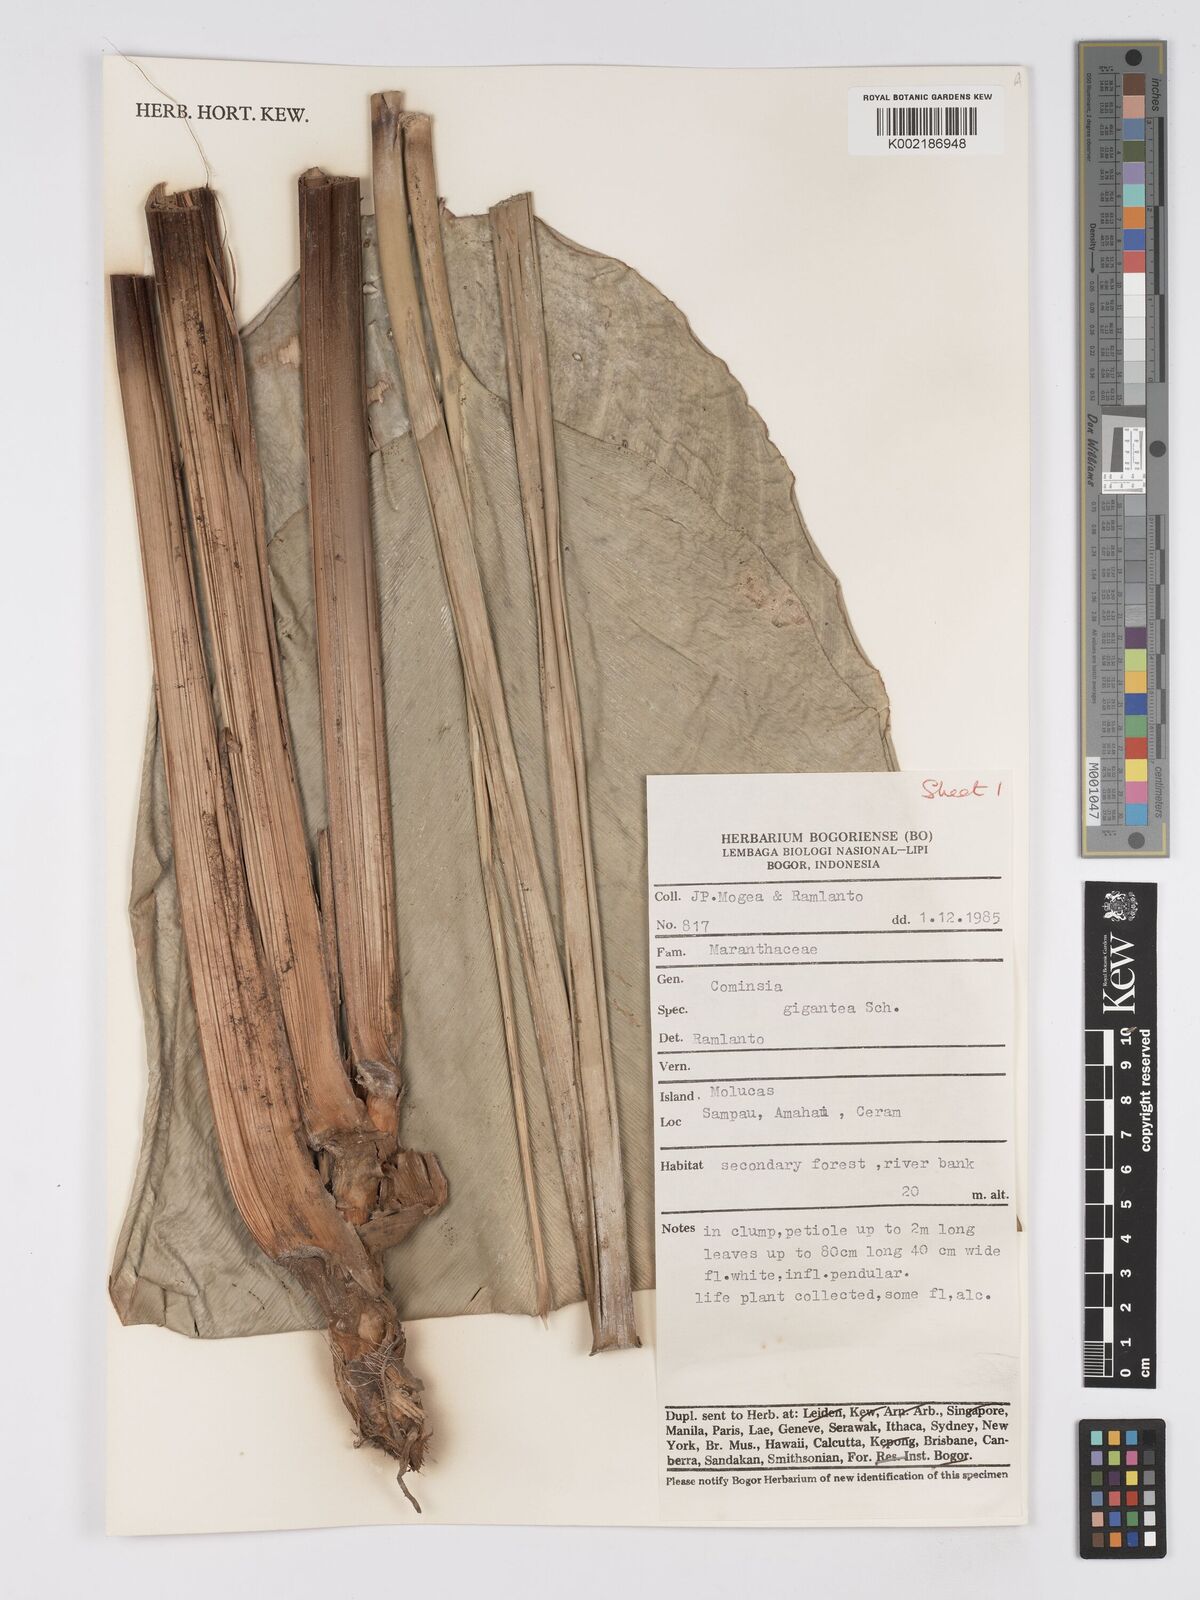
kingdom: Plantae
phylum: Tracheophyta
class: Liliopsida
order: Zingiberales
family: Marantaceae
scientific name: Marantaceae
